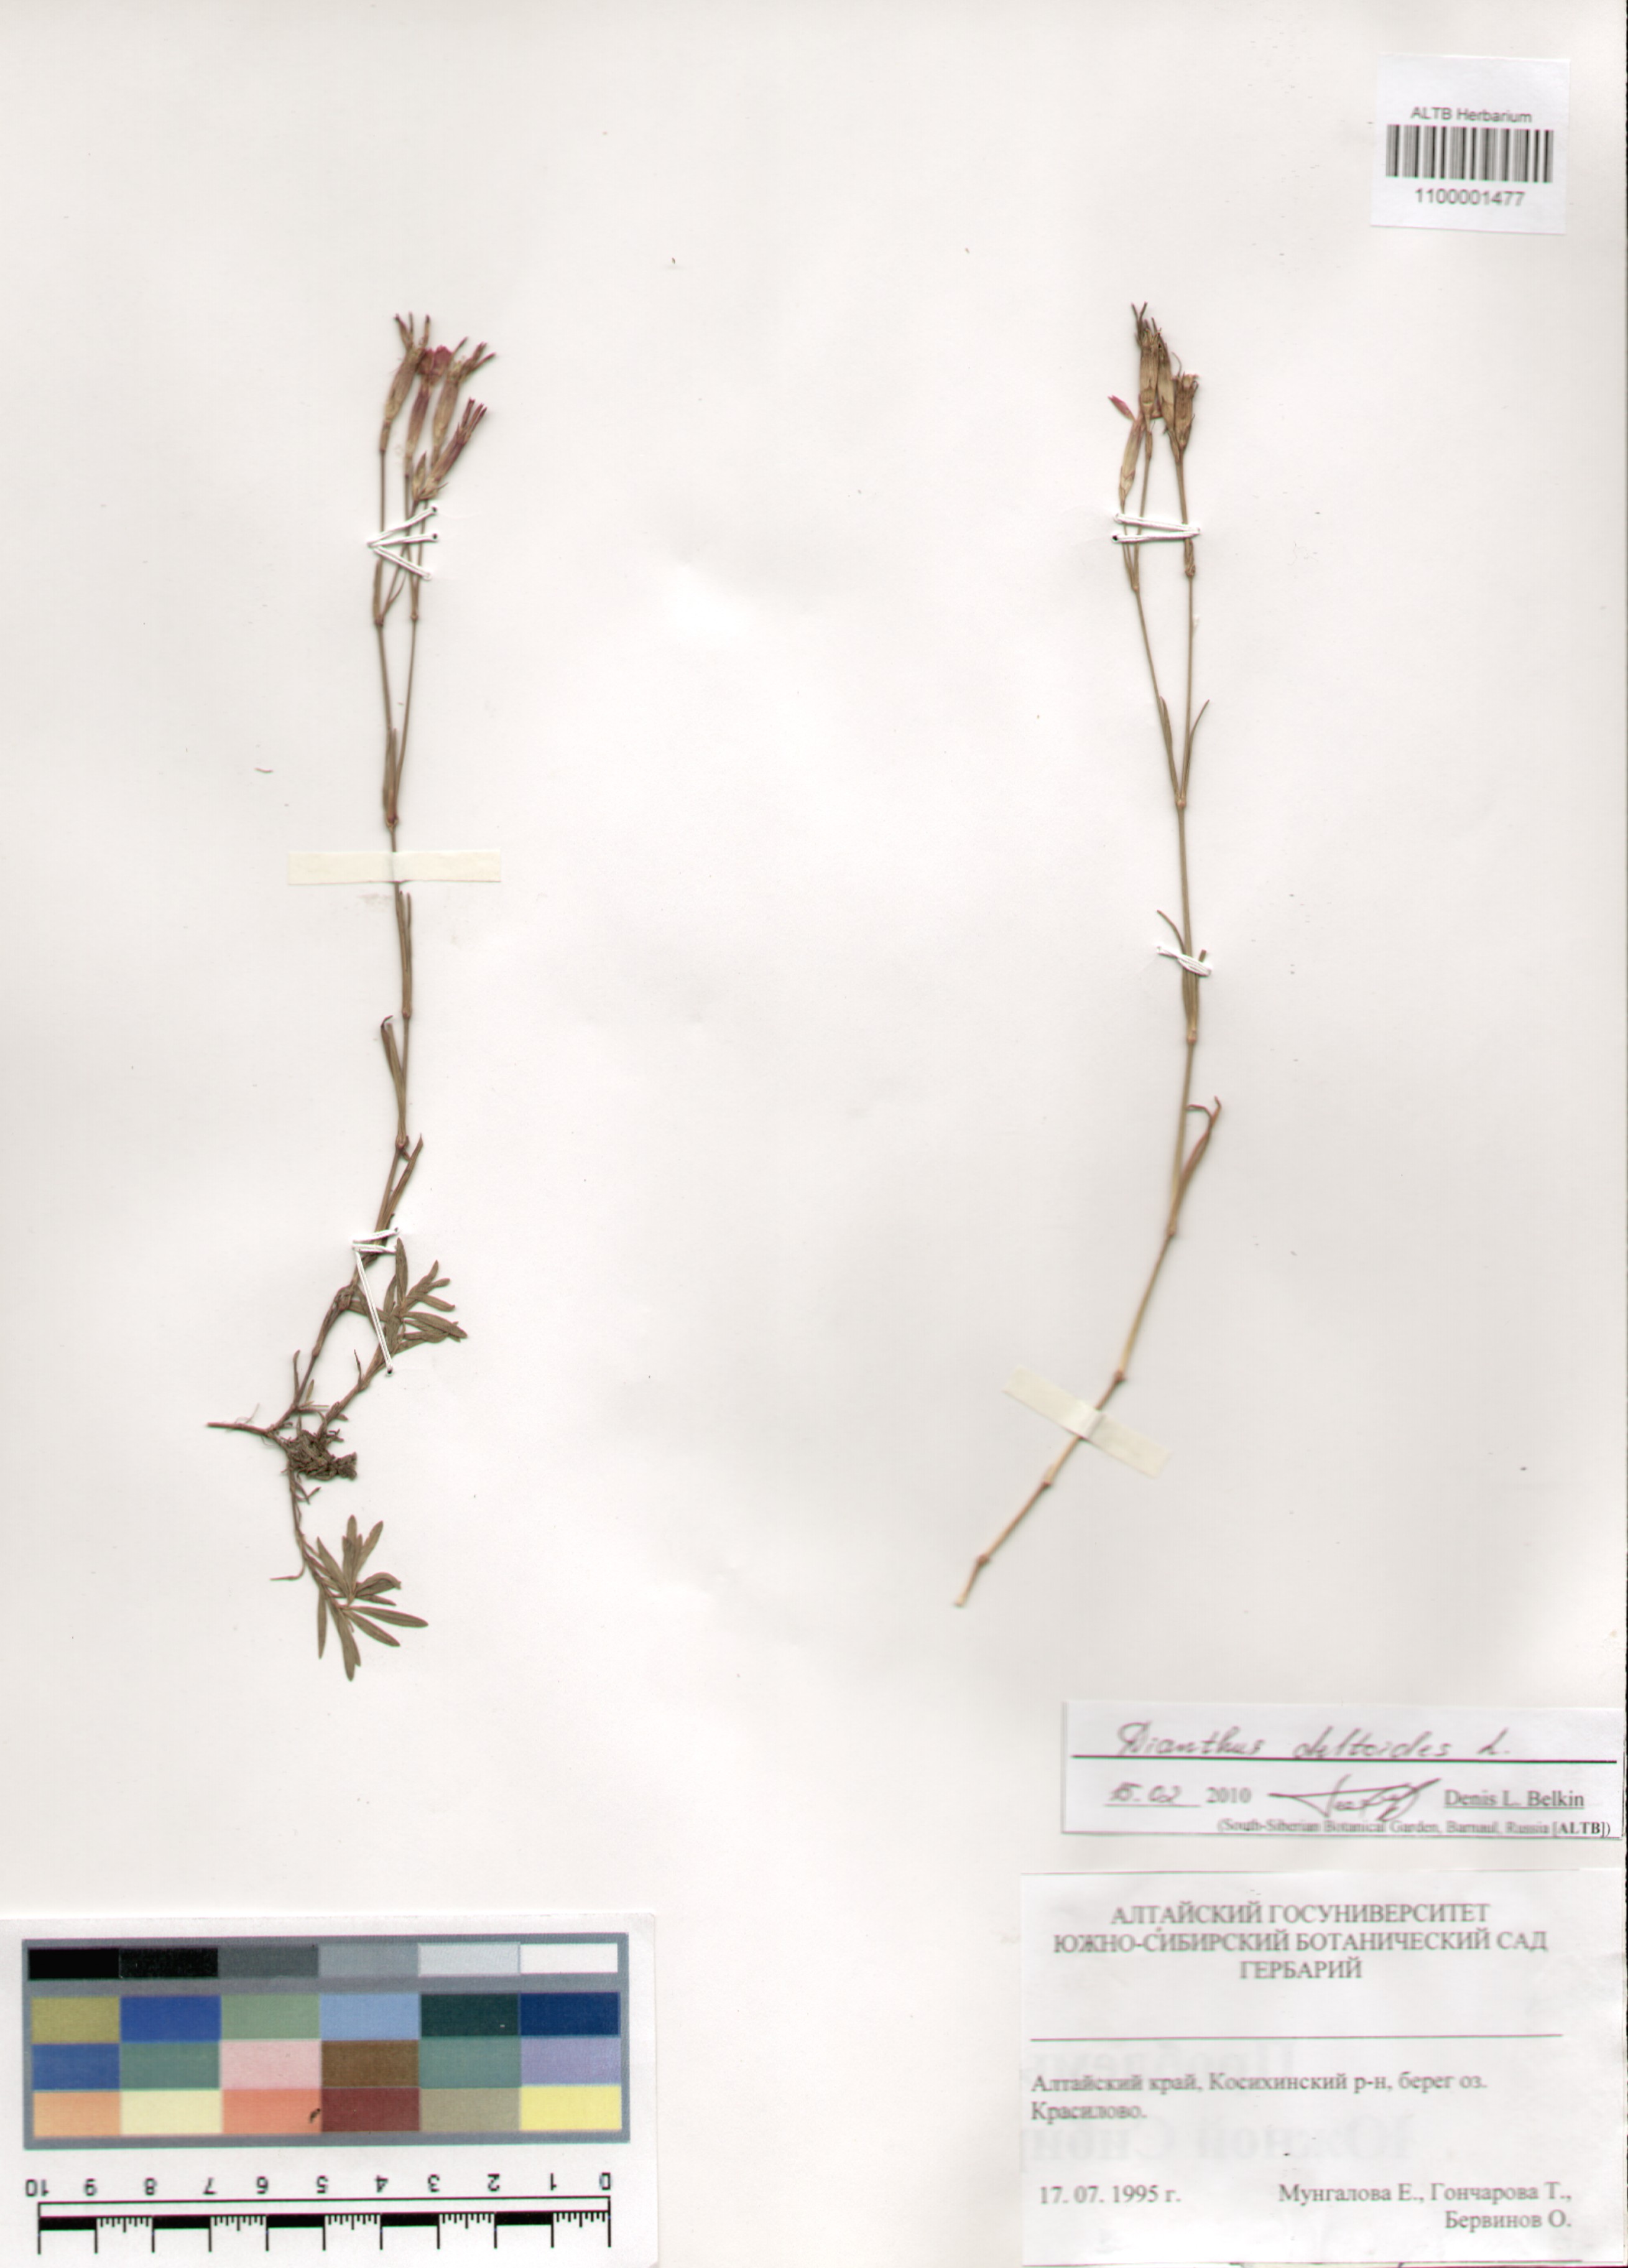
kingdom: Plantae
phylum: Tracheophyta
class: Magnoliopsida
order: Caryophyllales
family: Caryophyllaceae
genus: Dianthus
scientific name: Dianthus deltoides
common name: Maiden pink
